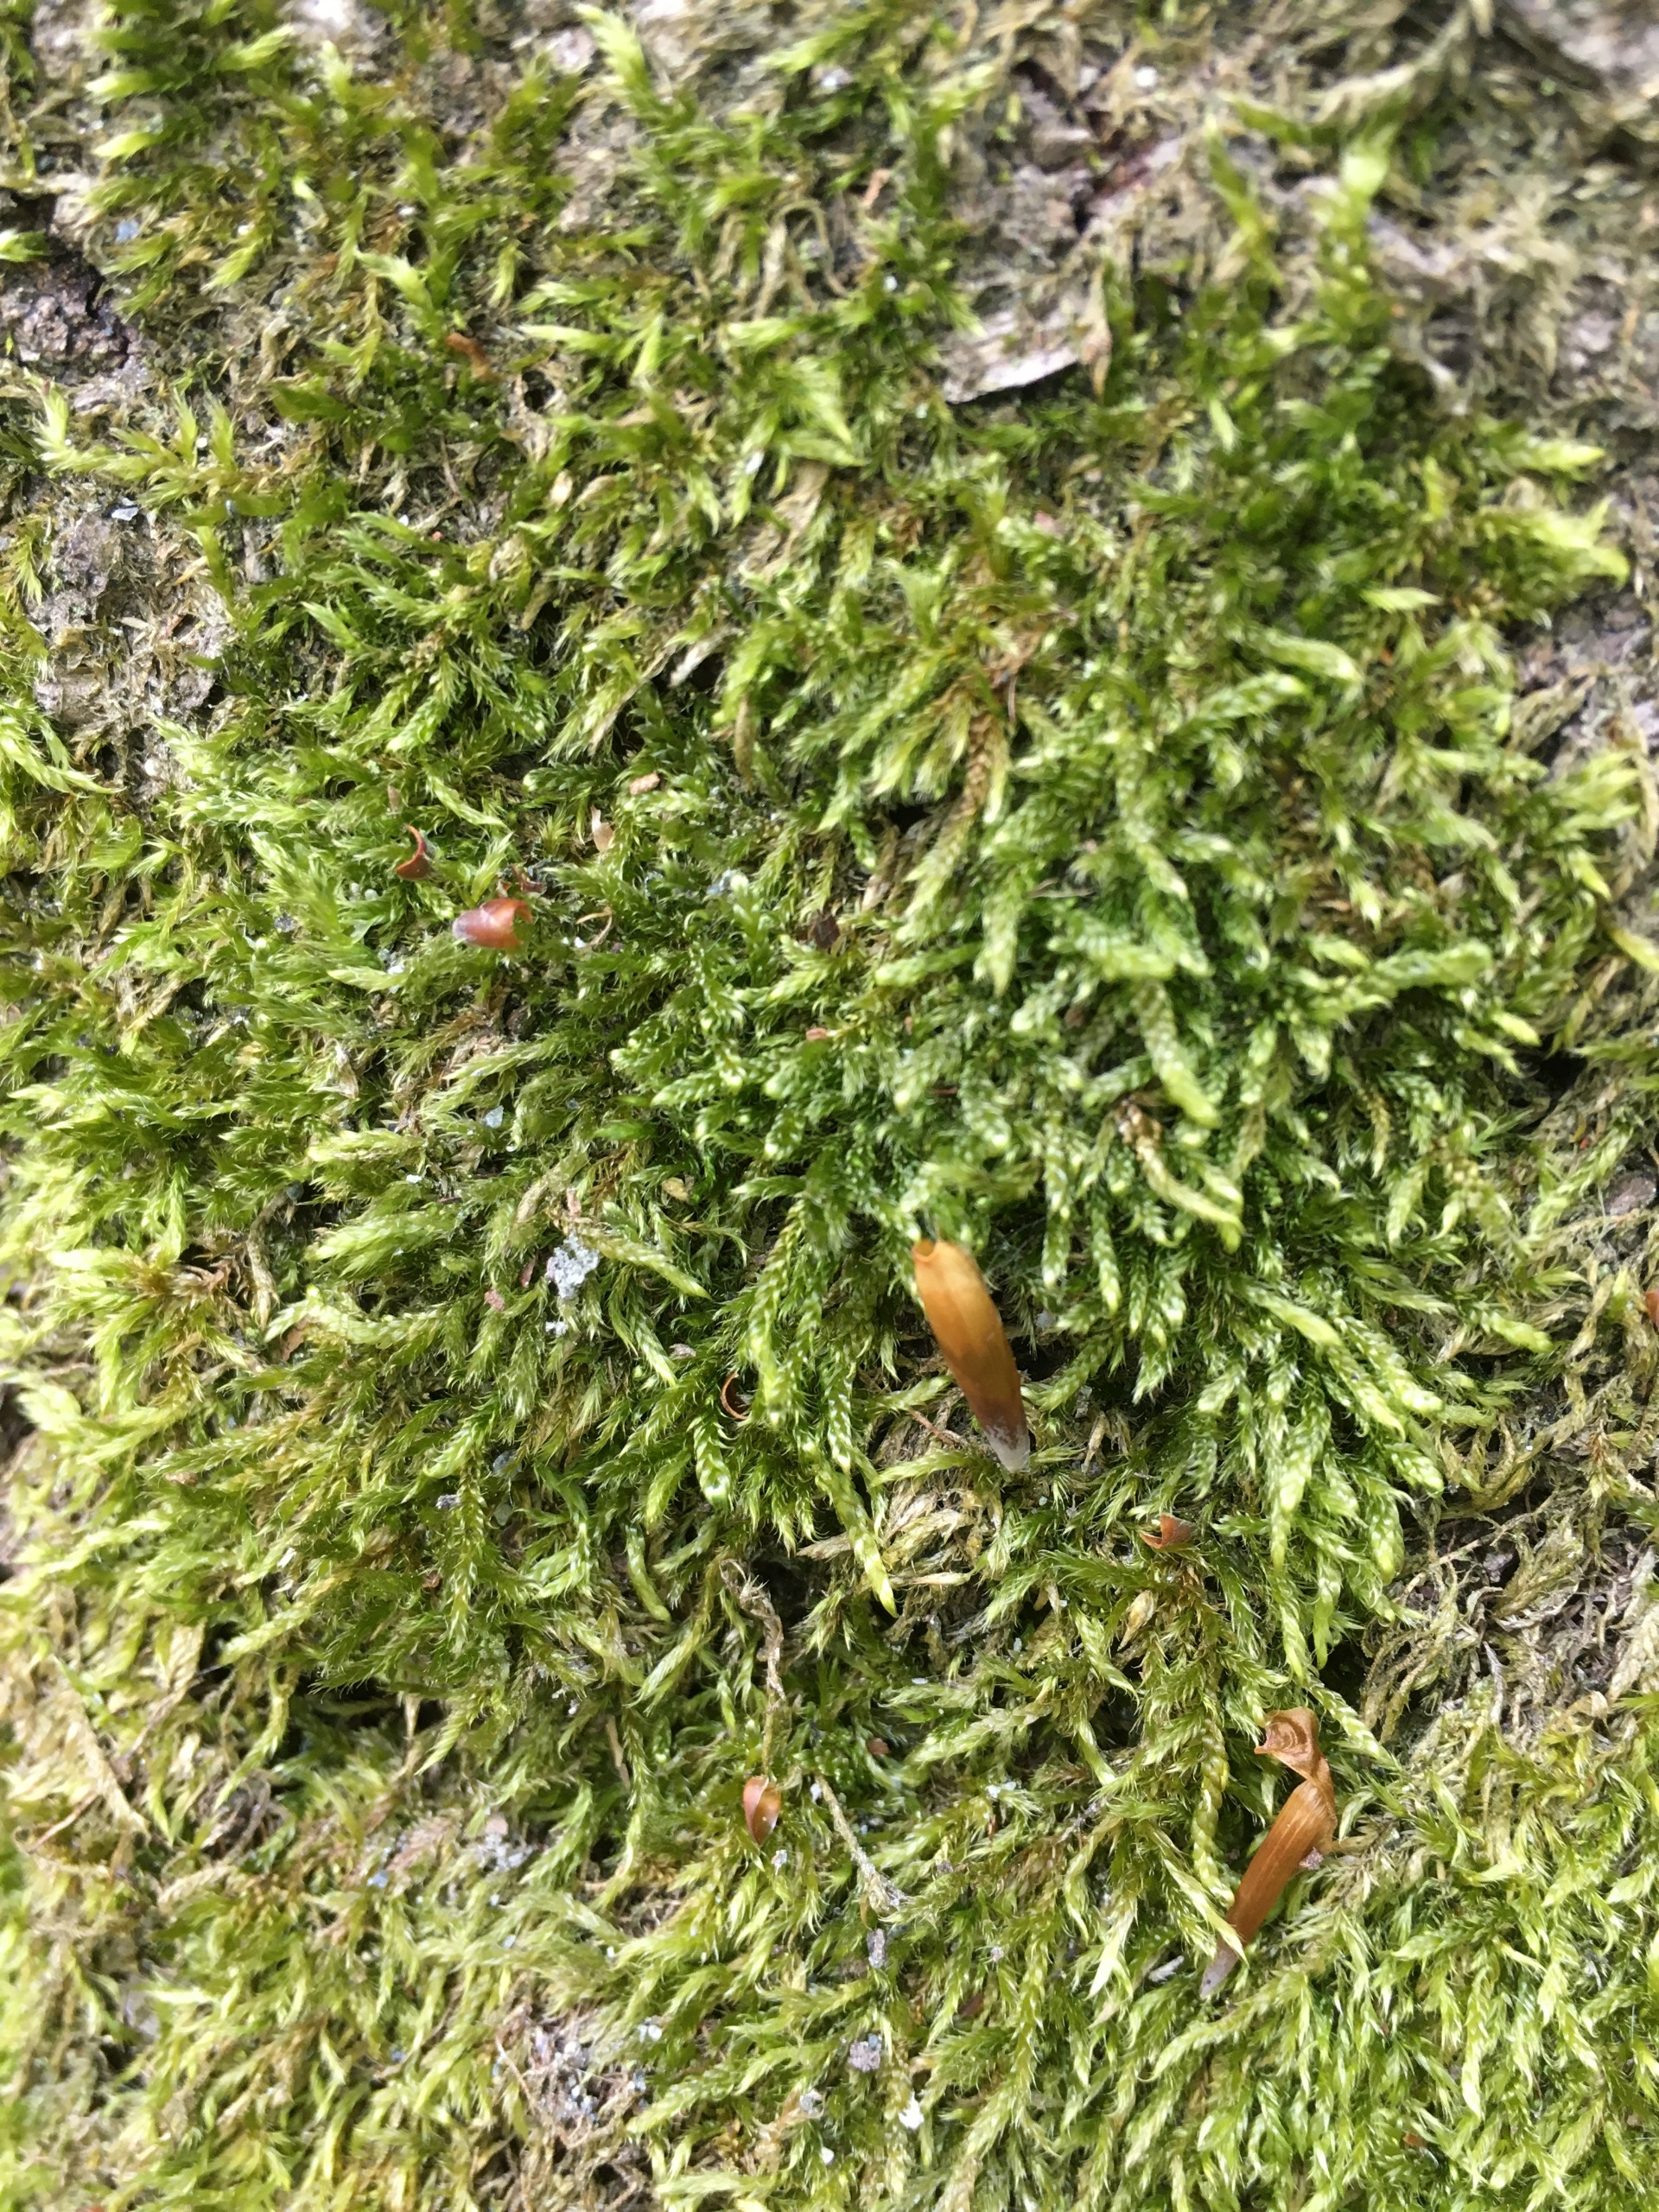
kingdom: Plantae
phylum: Bryophyta
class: Bryopsida
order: Hypnales
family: Hypnaceae
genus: Hypnum
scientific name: Hypnum cupressiforme
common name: Almindelig cypresmos
